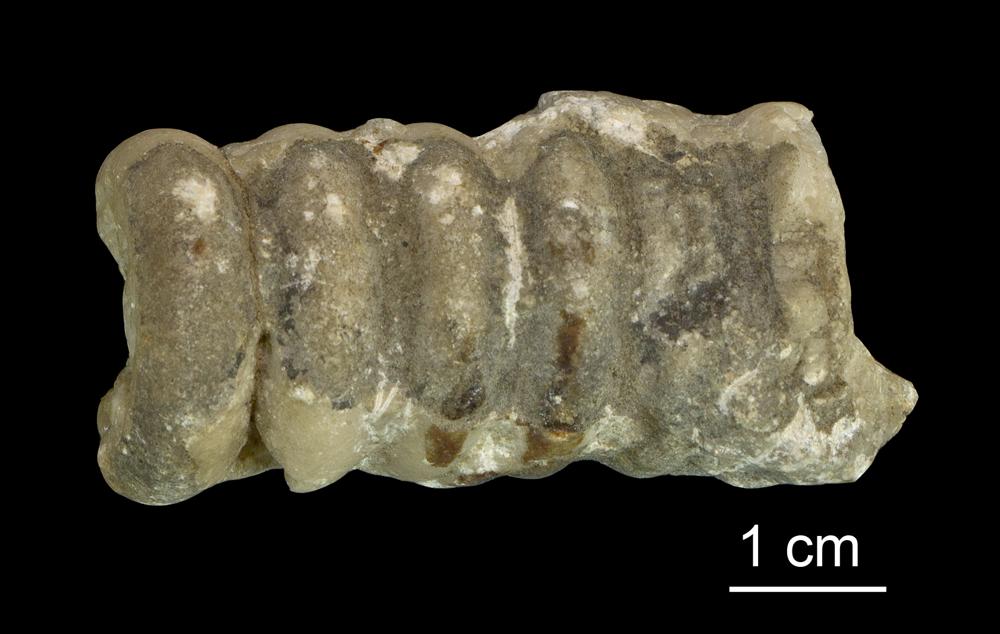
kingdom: Animalia
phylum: Mollusca
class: Cephalopoda
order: Orthocerida
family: Orthoceratidae
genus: Orthoceras
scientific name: Orthoceras
